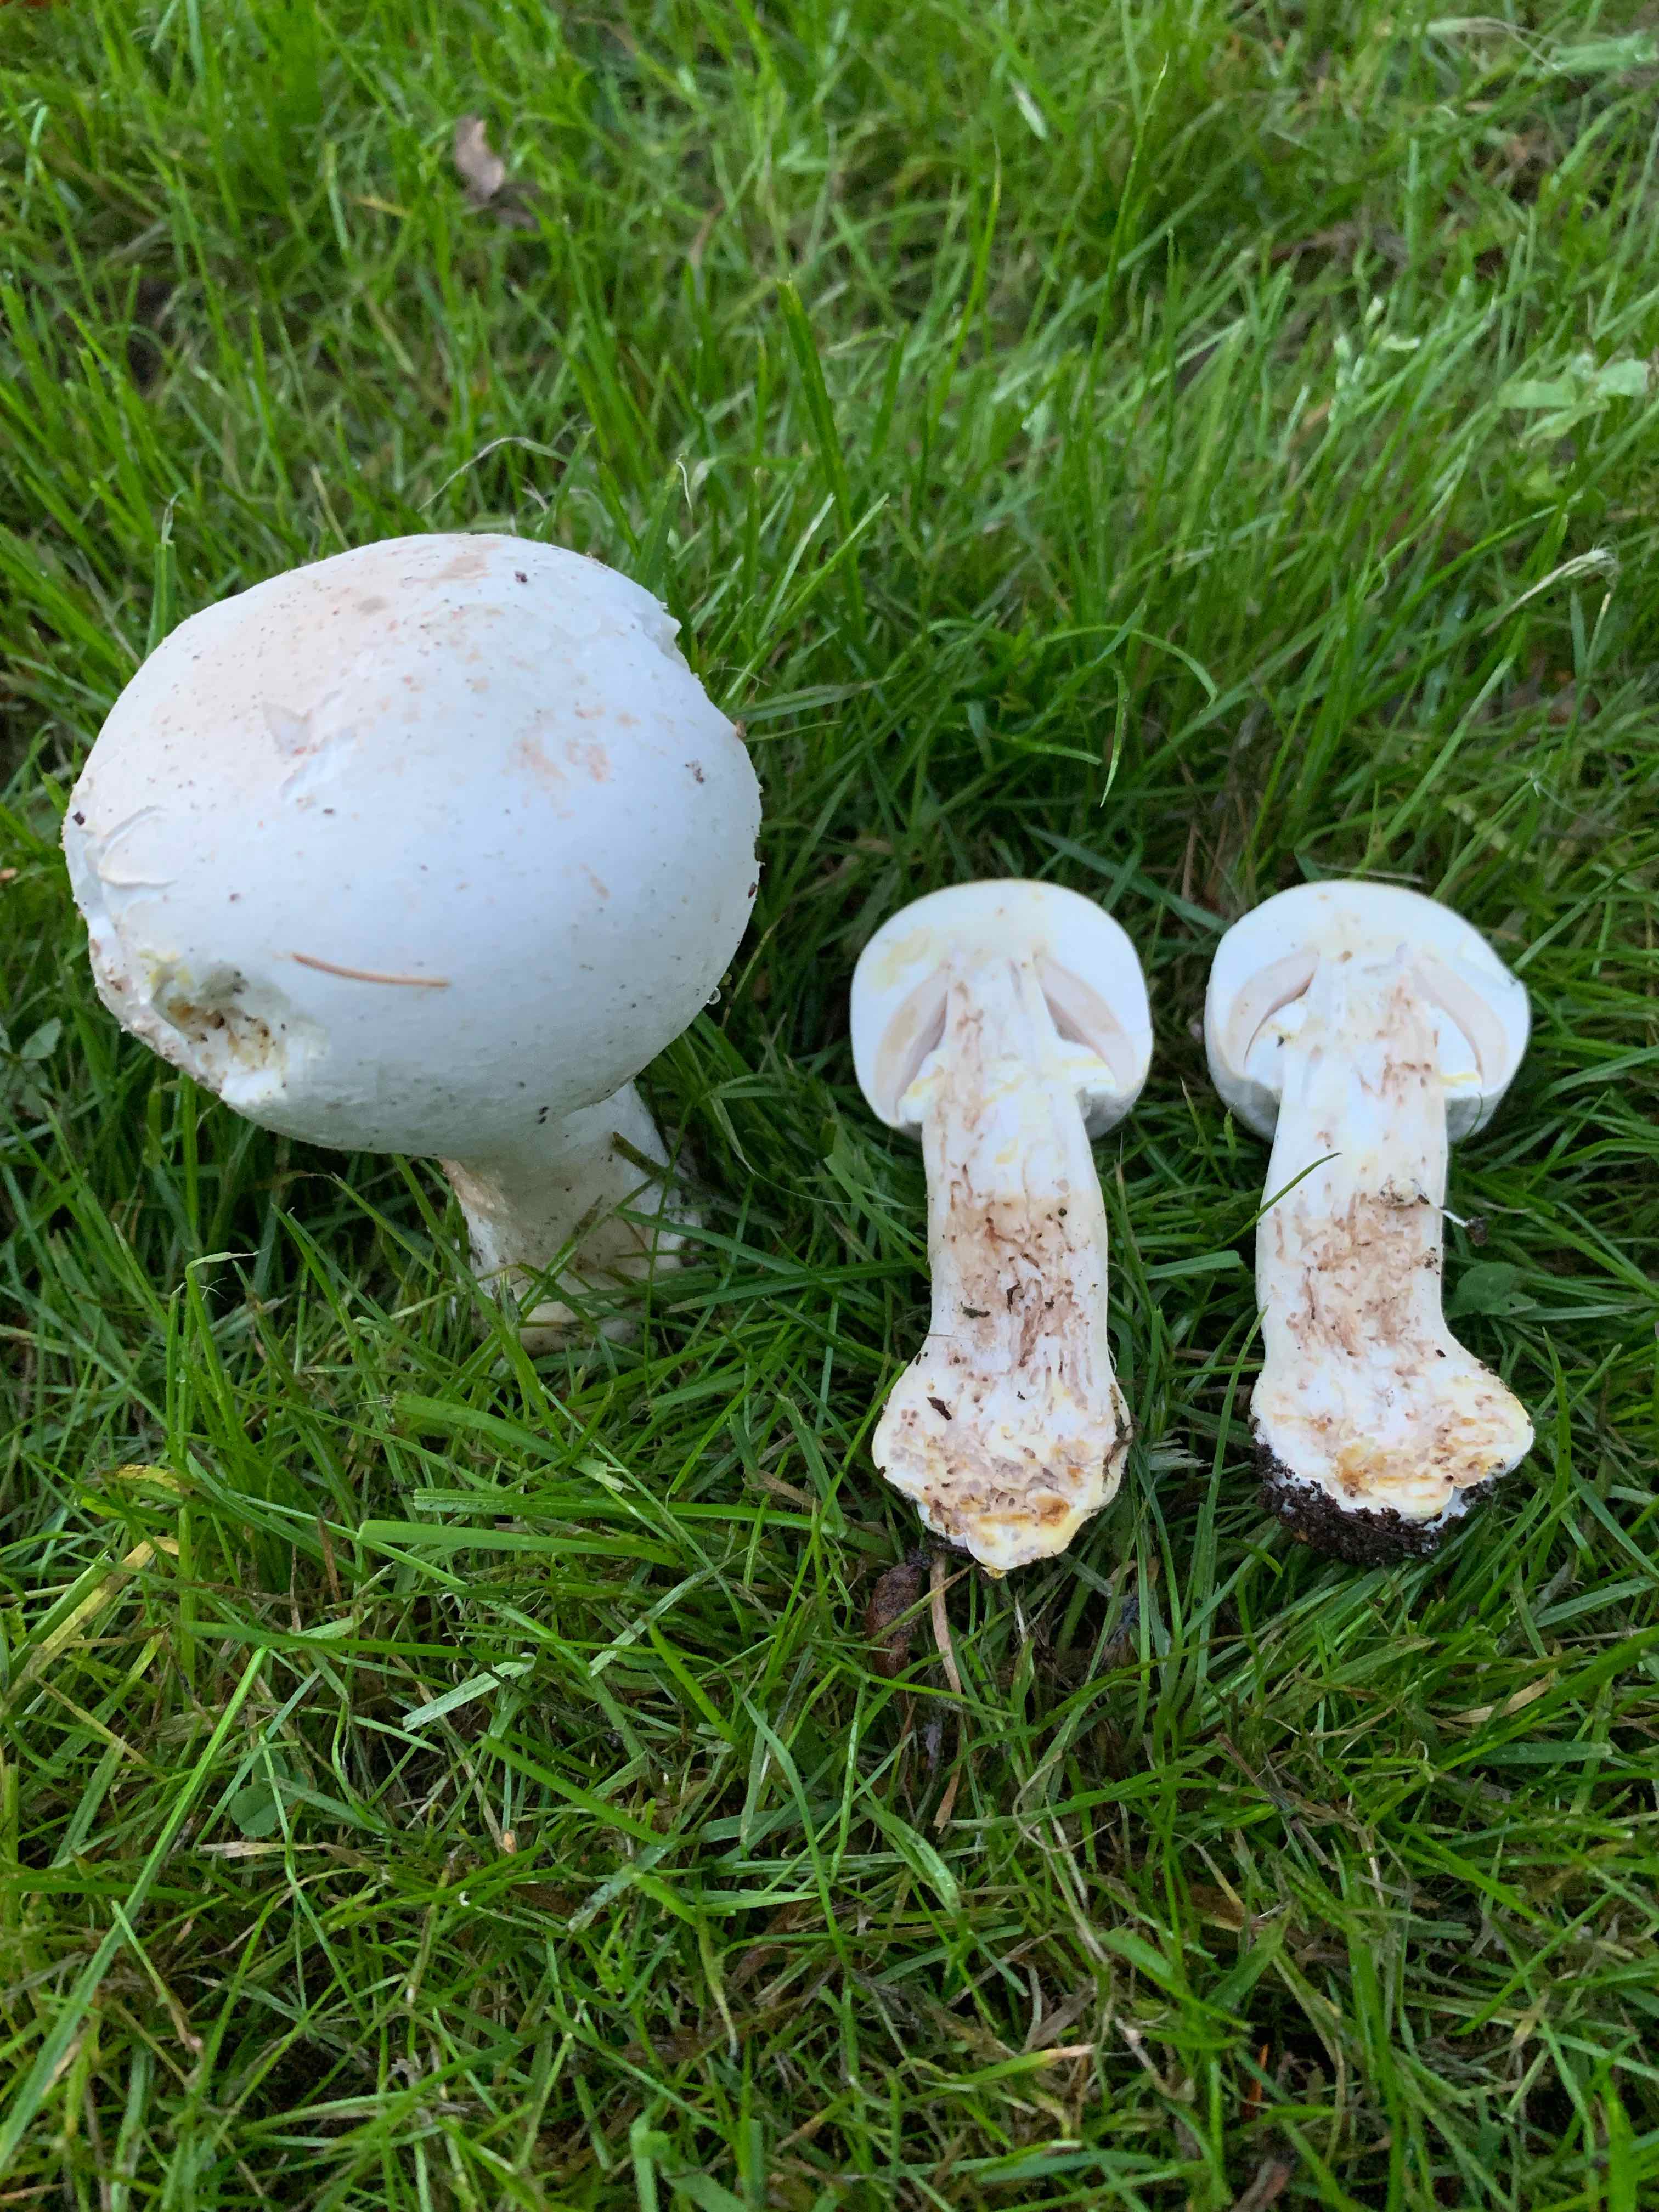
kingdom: Fungi
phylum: Basidiomycota
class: Agaricomycetes
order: Agaricales
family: Agaricaceae
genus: Agaricus
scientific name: Agaricus xanthodermus
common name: karbol-champignon
